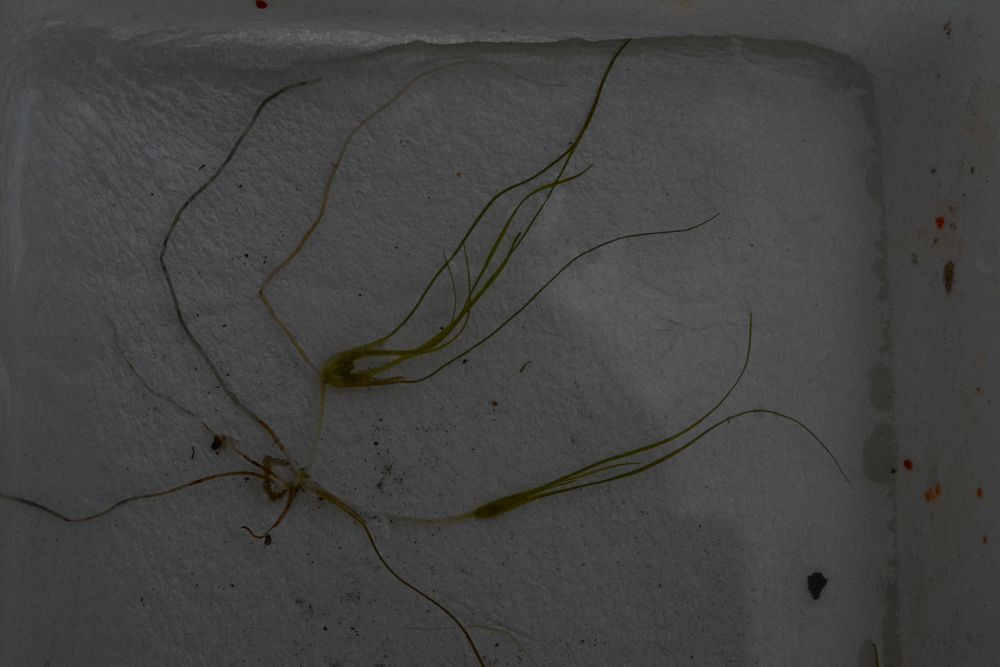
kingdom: Plantae
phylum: Tracheophyta
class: Liliopsida
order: Alismatales
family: Ruppiaceae
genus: Ruppia
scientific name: Ruppia maritima
